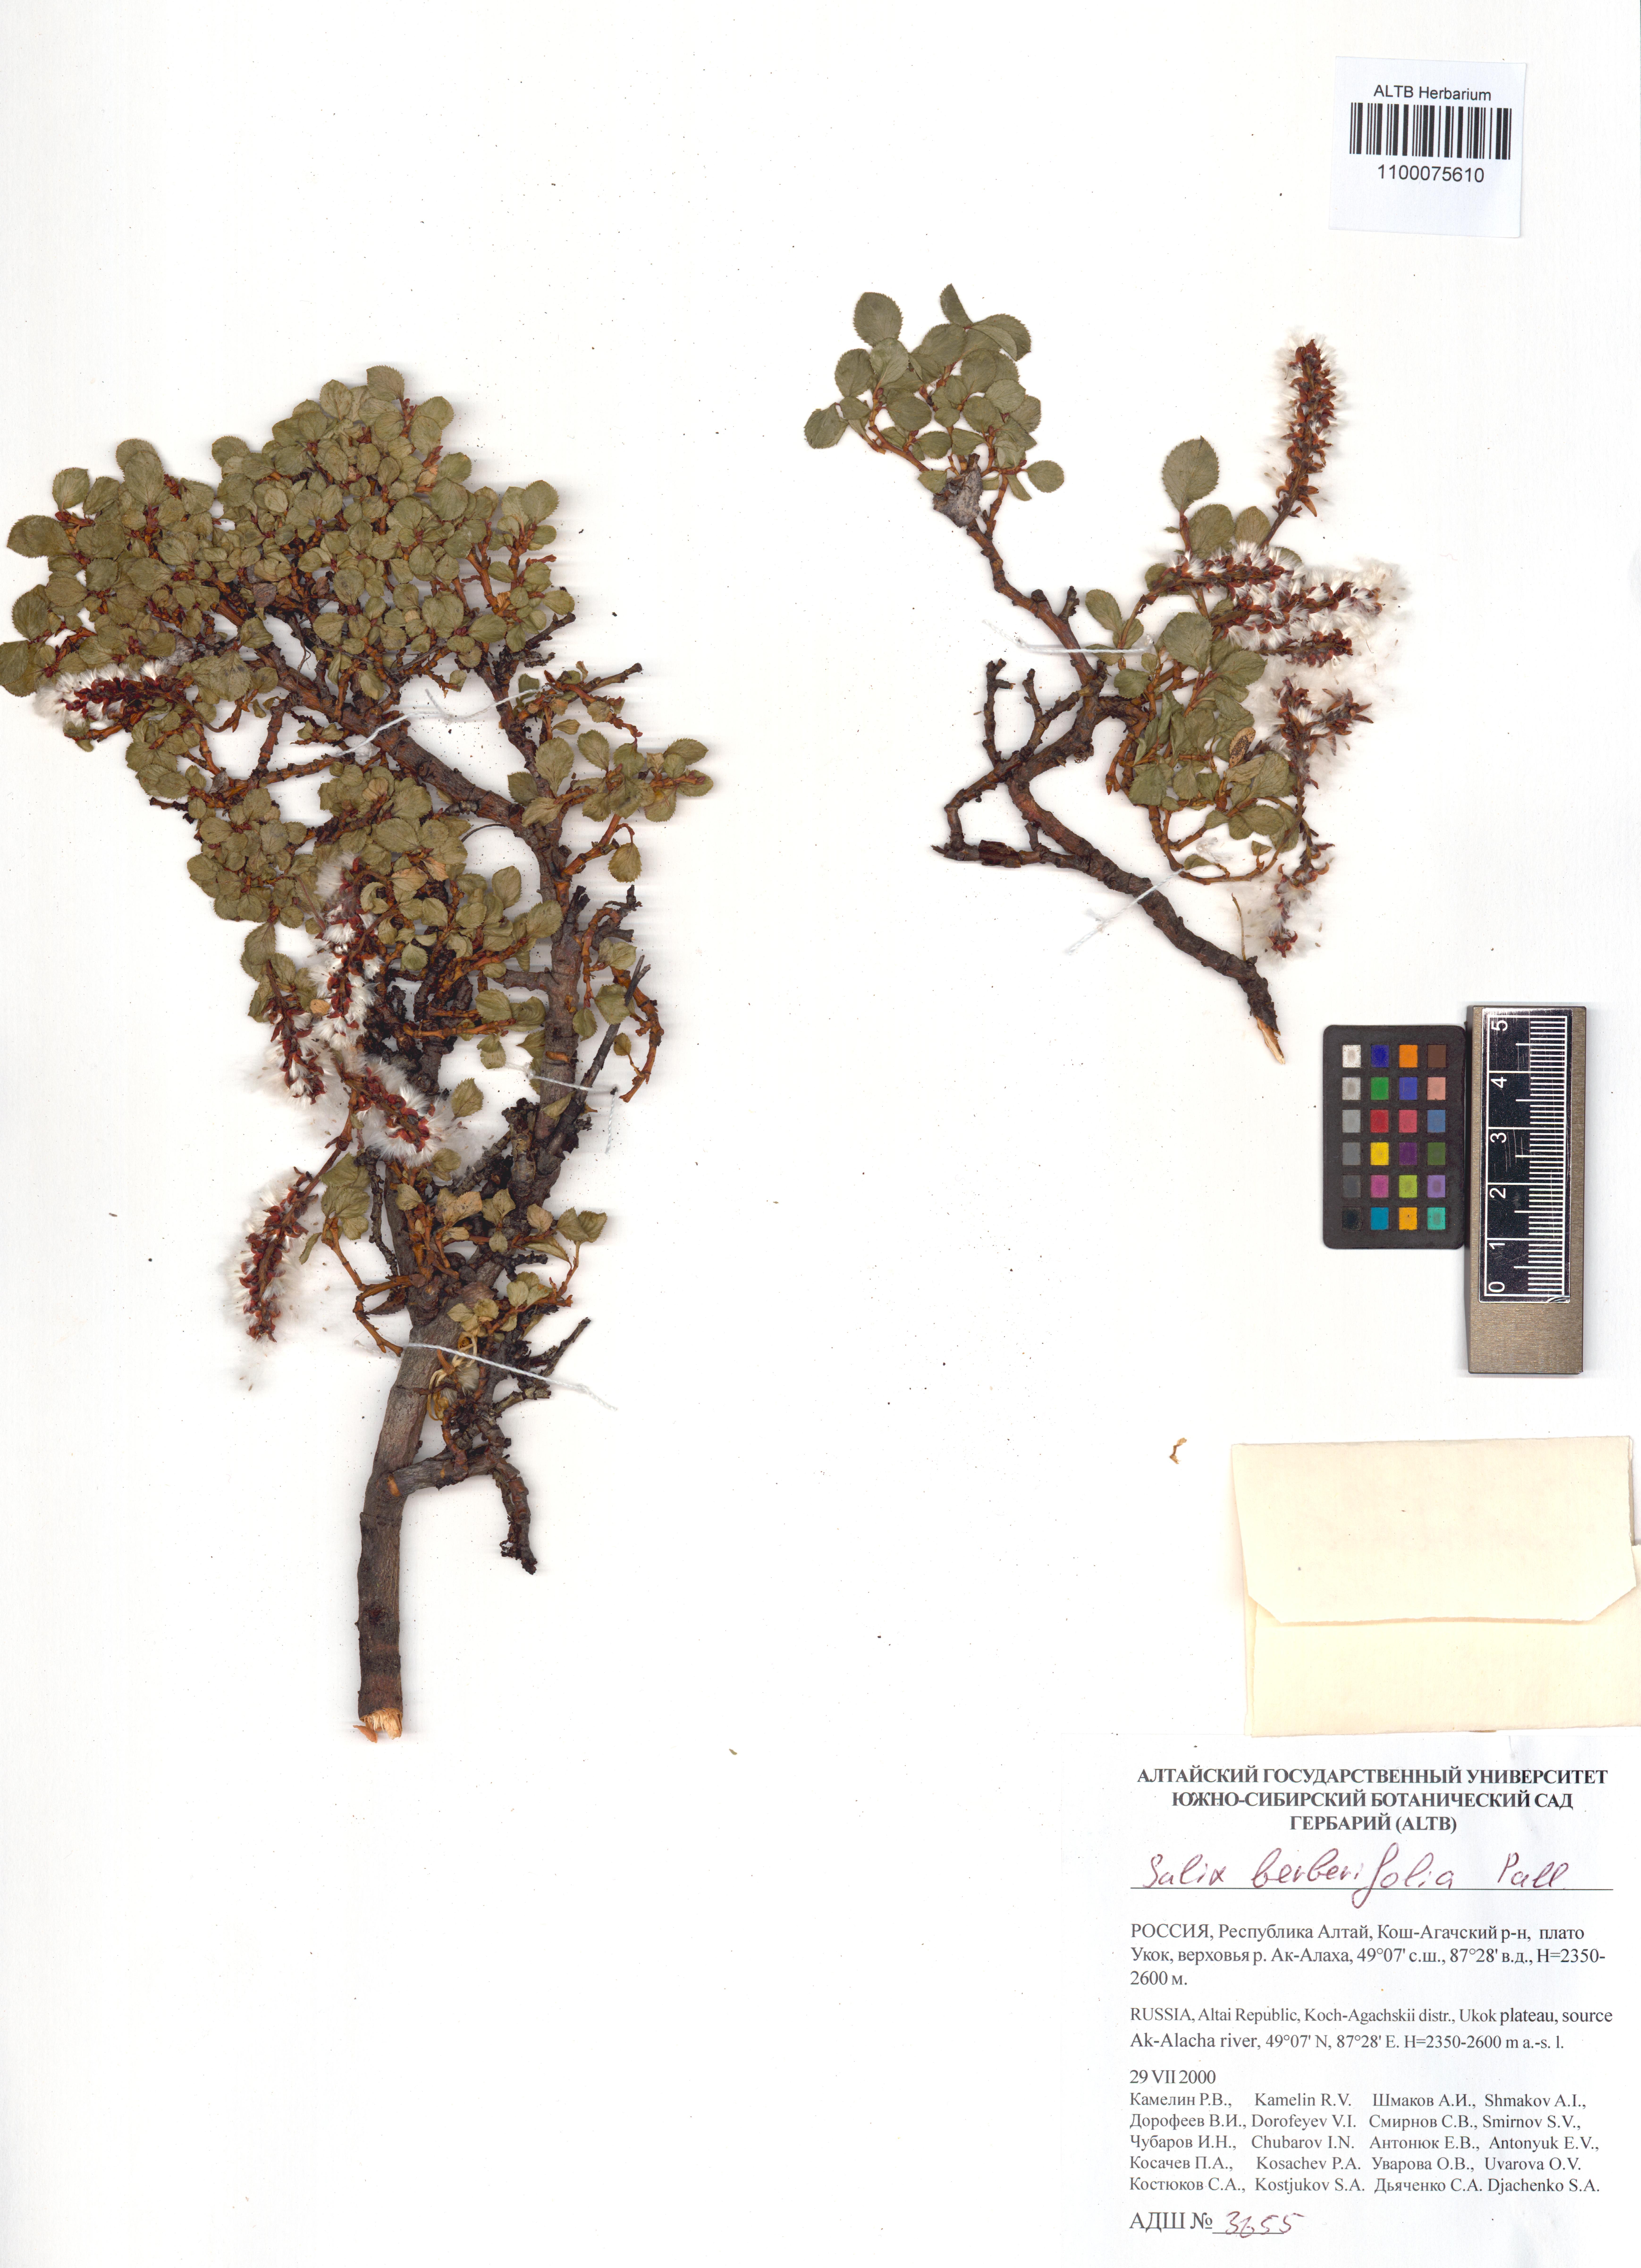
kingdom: Plantae
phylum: Tracheophyta
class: Magnoliopsida
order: Malpighiales
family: Salicaceae
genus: Salix
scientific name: Salix berberifolia
